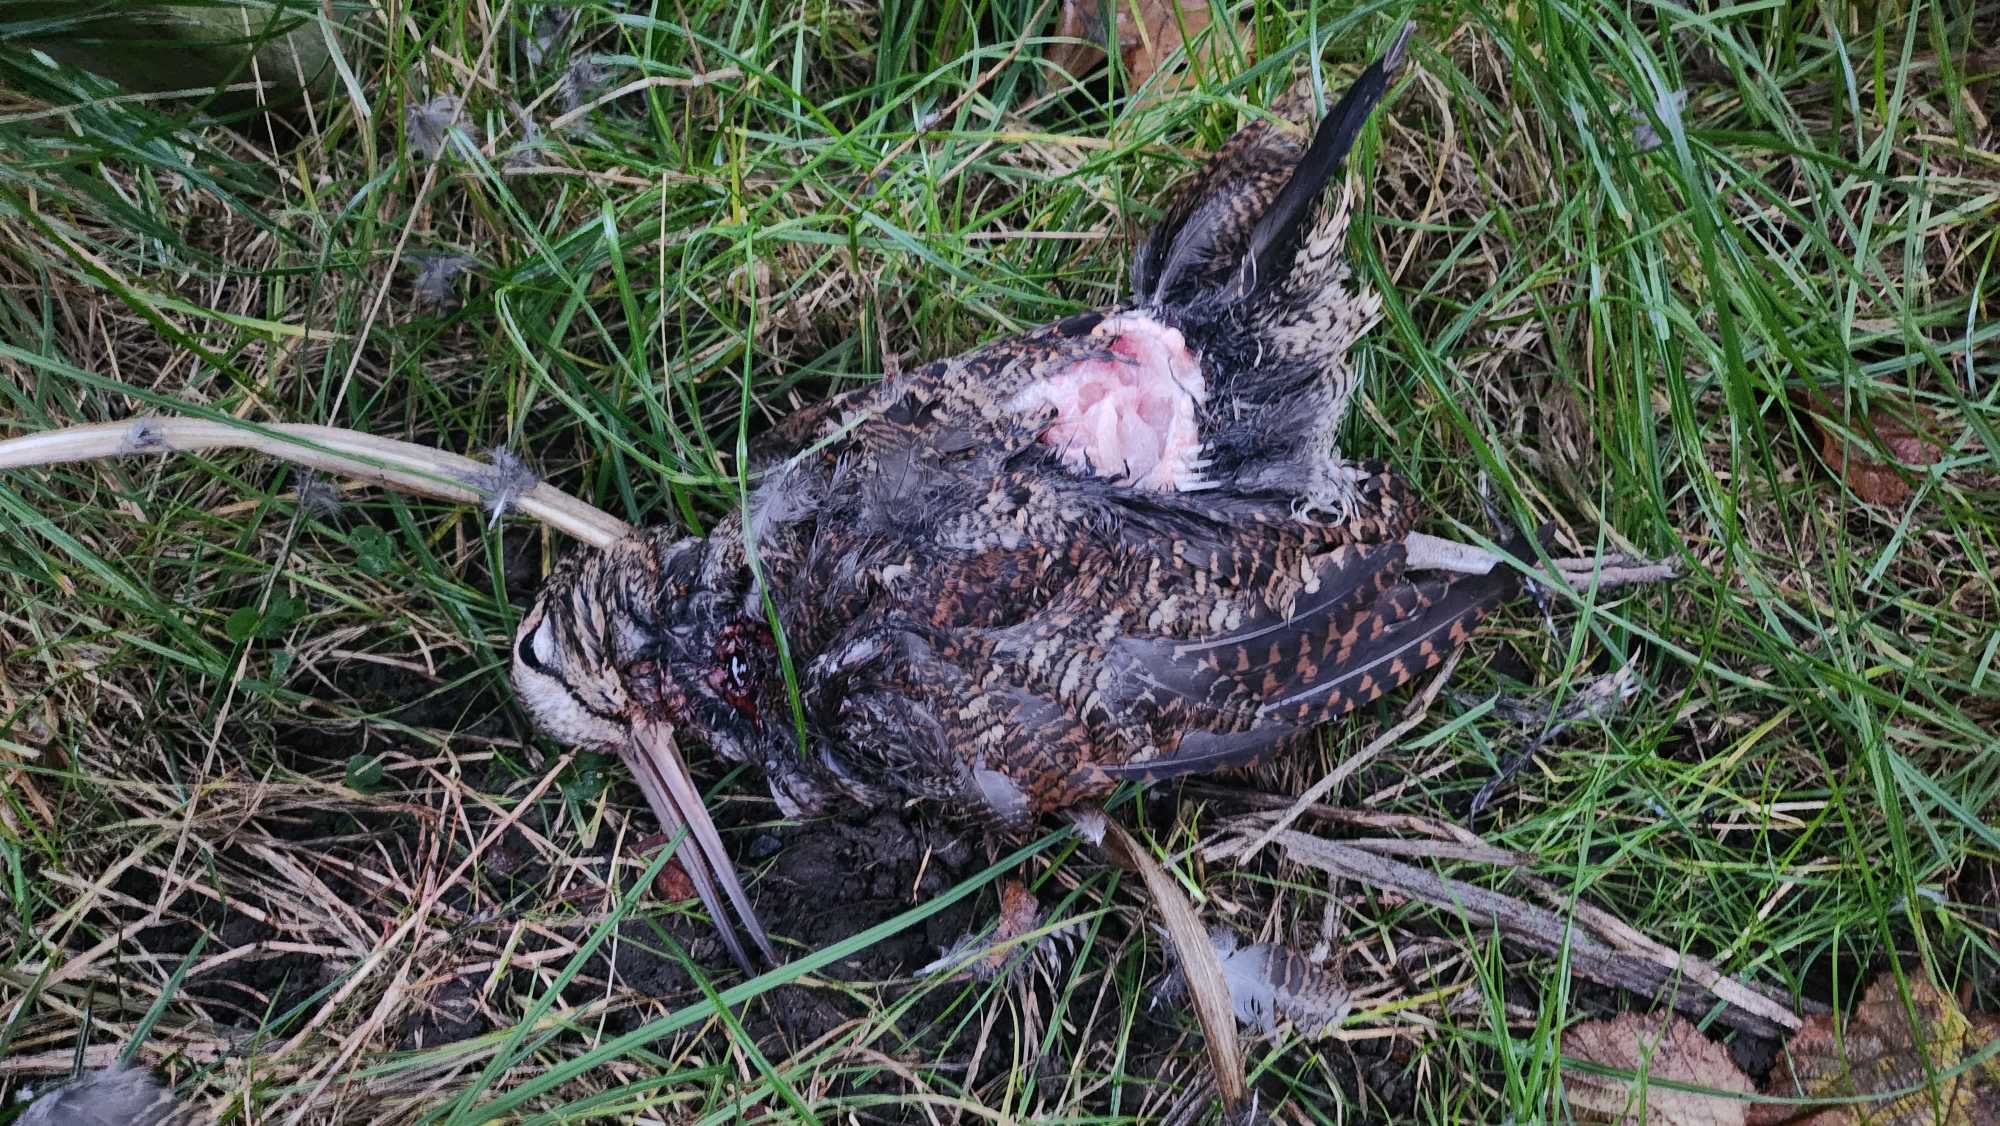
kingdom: Animalia
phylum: Chordata
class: Aves
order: Charadriiformes
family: Scolopacidae
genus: Scolopax
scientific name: Scolopax rusticola
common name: Skovsneppe
